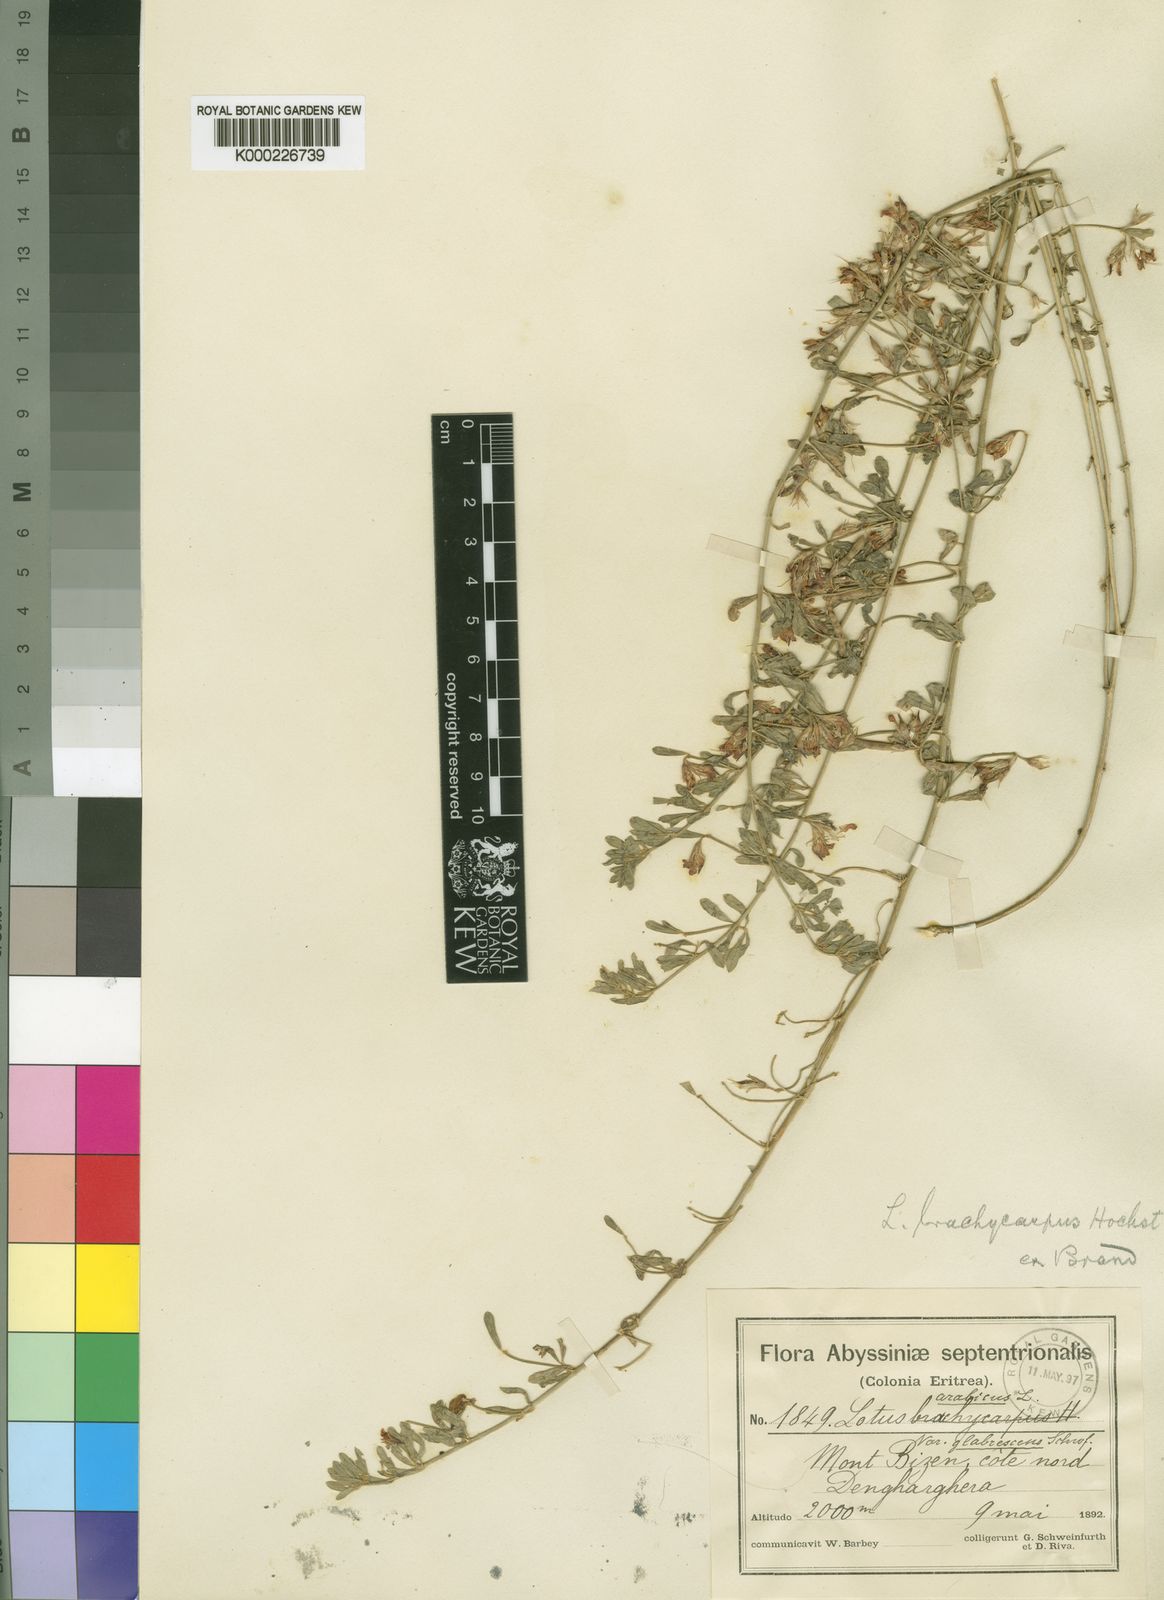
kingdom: Plantae
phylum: Tracheophyta
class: Magnoliopsida
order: Fabales
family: Fabaceae
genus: Lotus
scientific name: Lotus lalambensis
